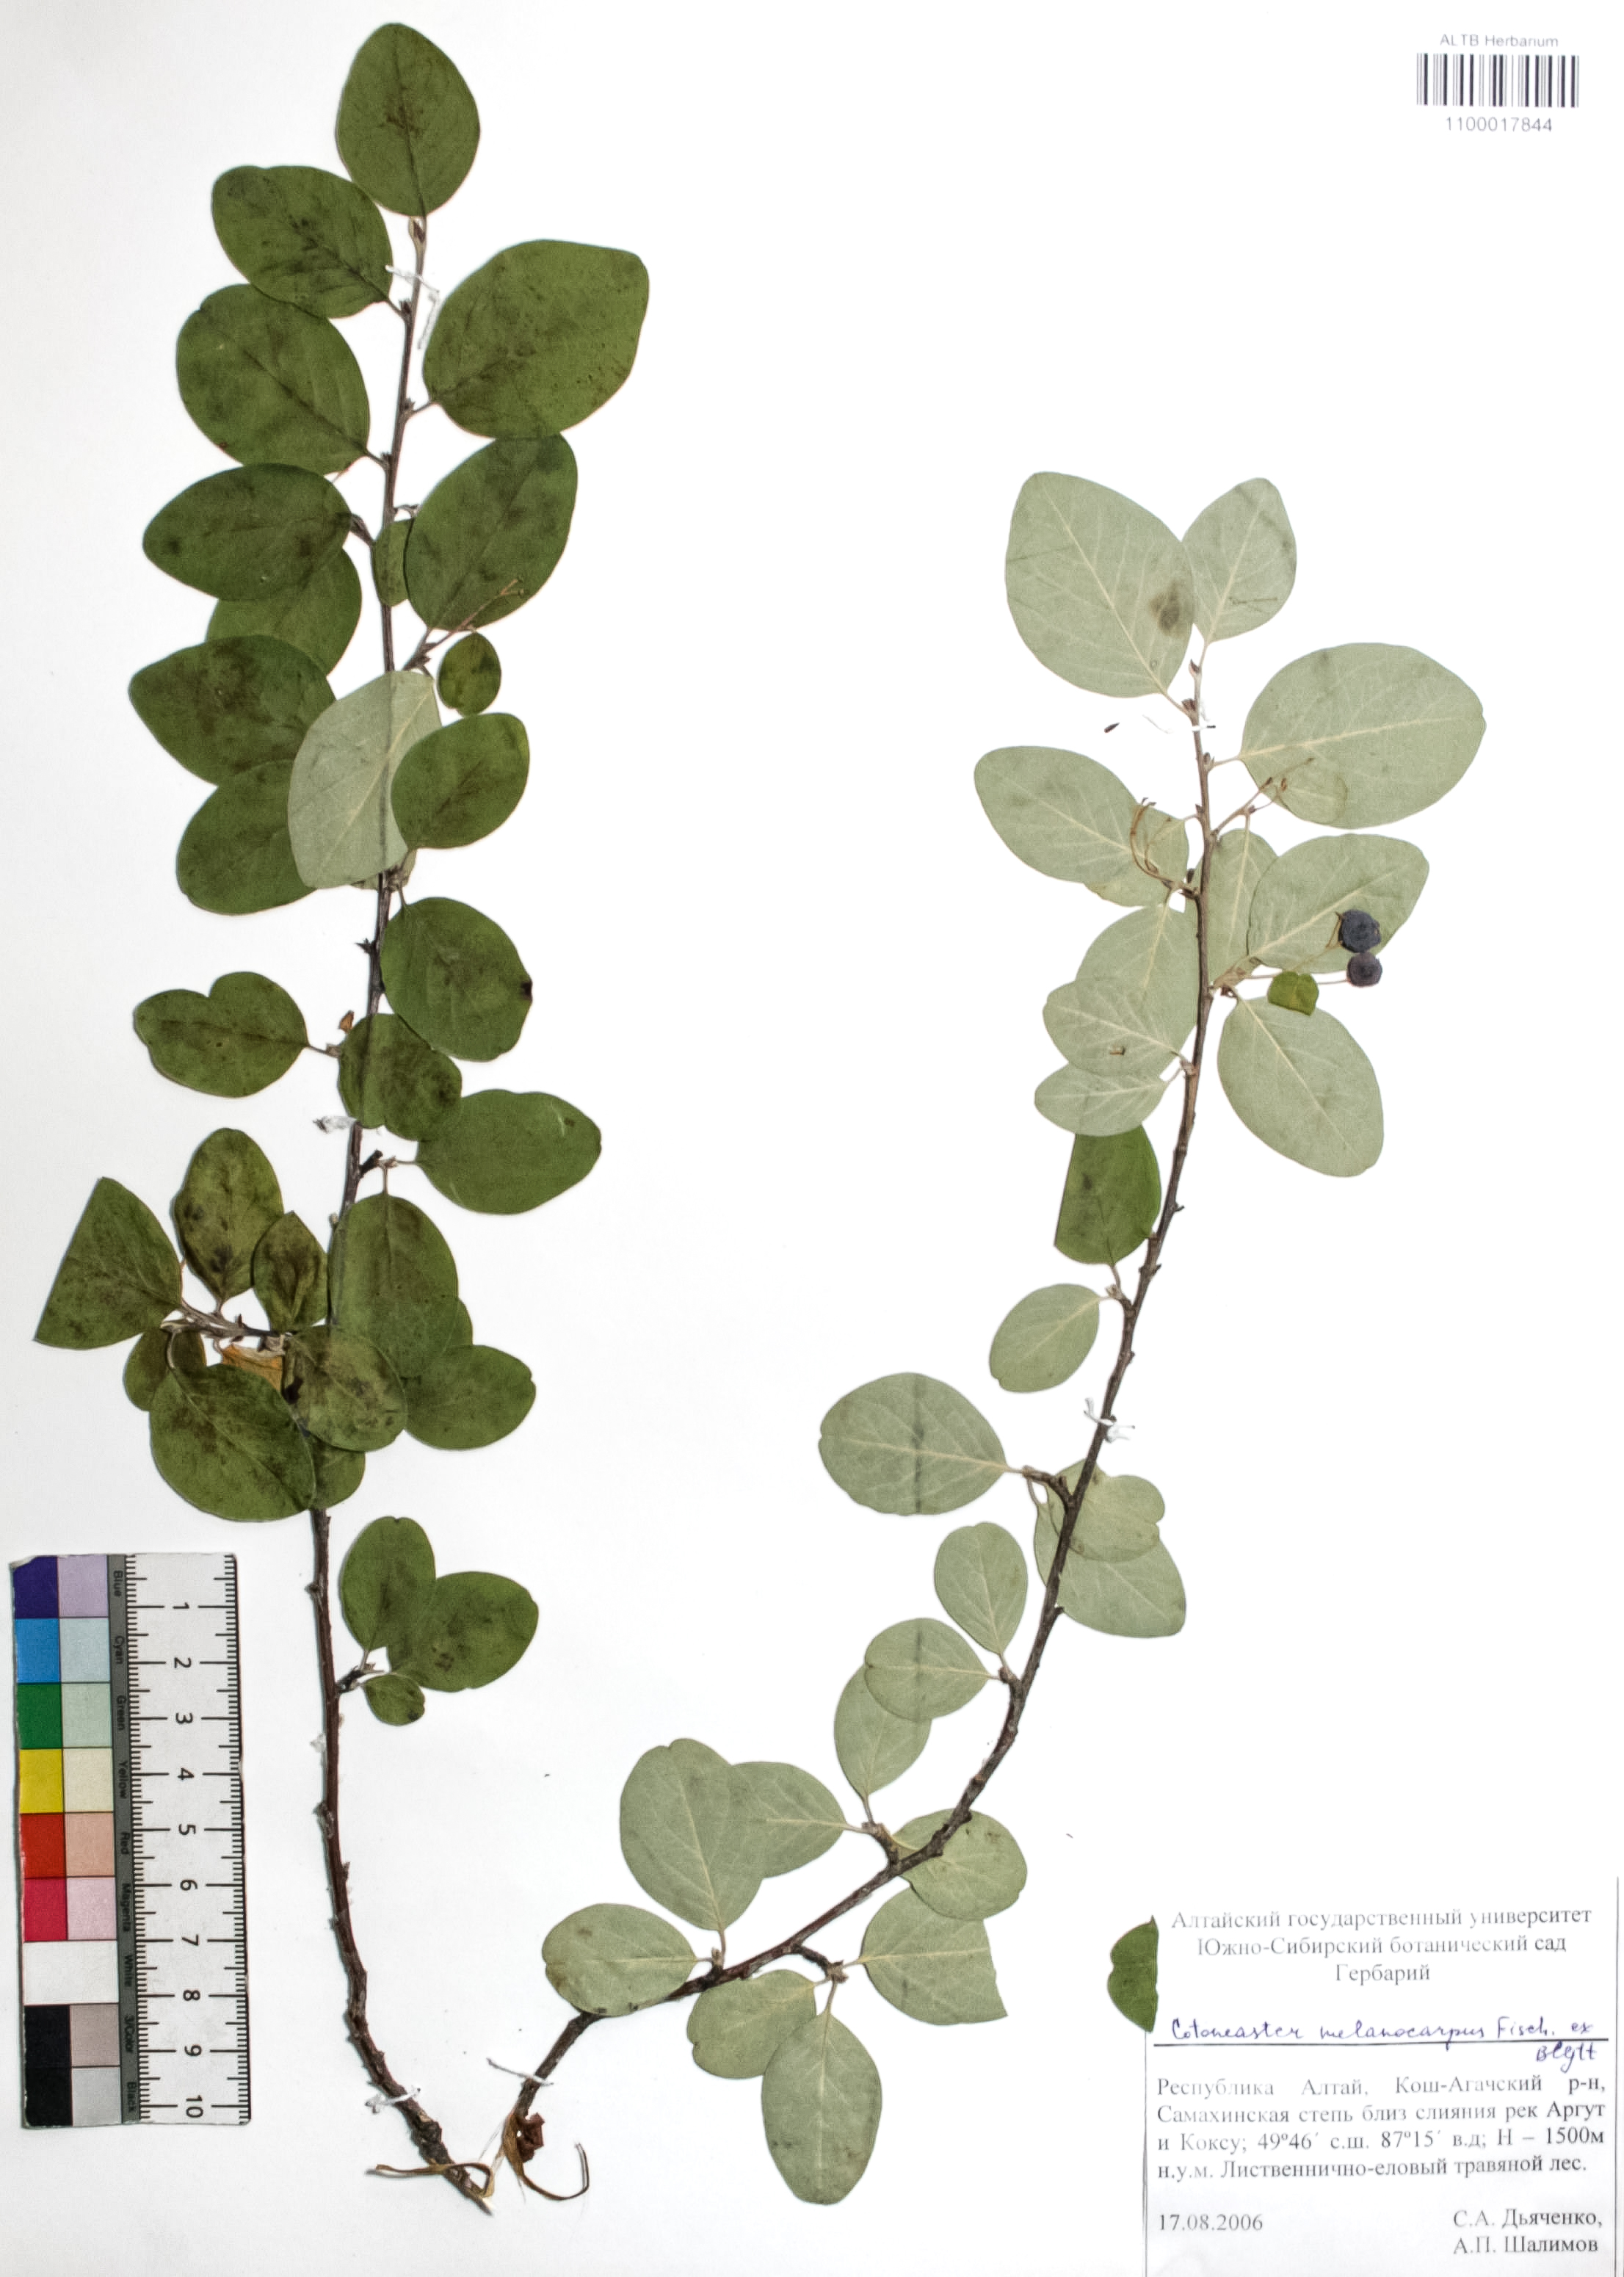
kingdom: Plantae
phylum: Tracheophyta
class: Magnoliopsida
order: Rosales
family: Rosaceae
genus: Cotoneaster
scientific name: Cotoneaster niger
